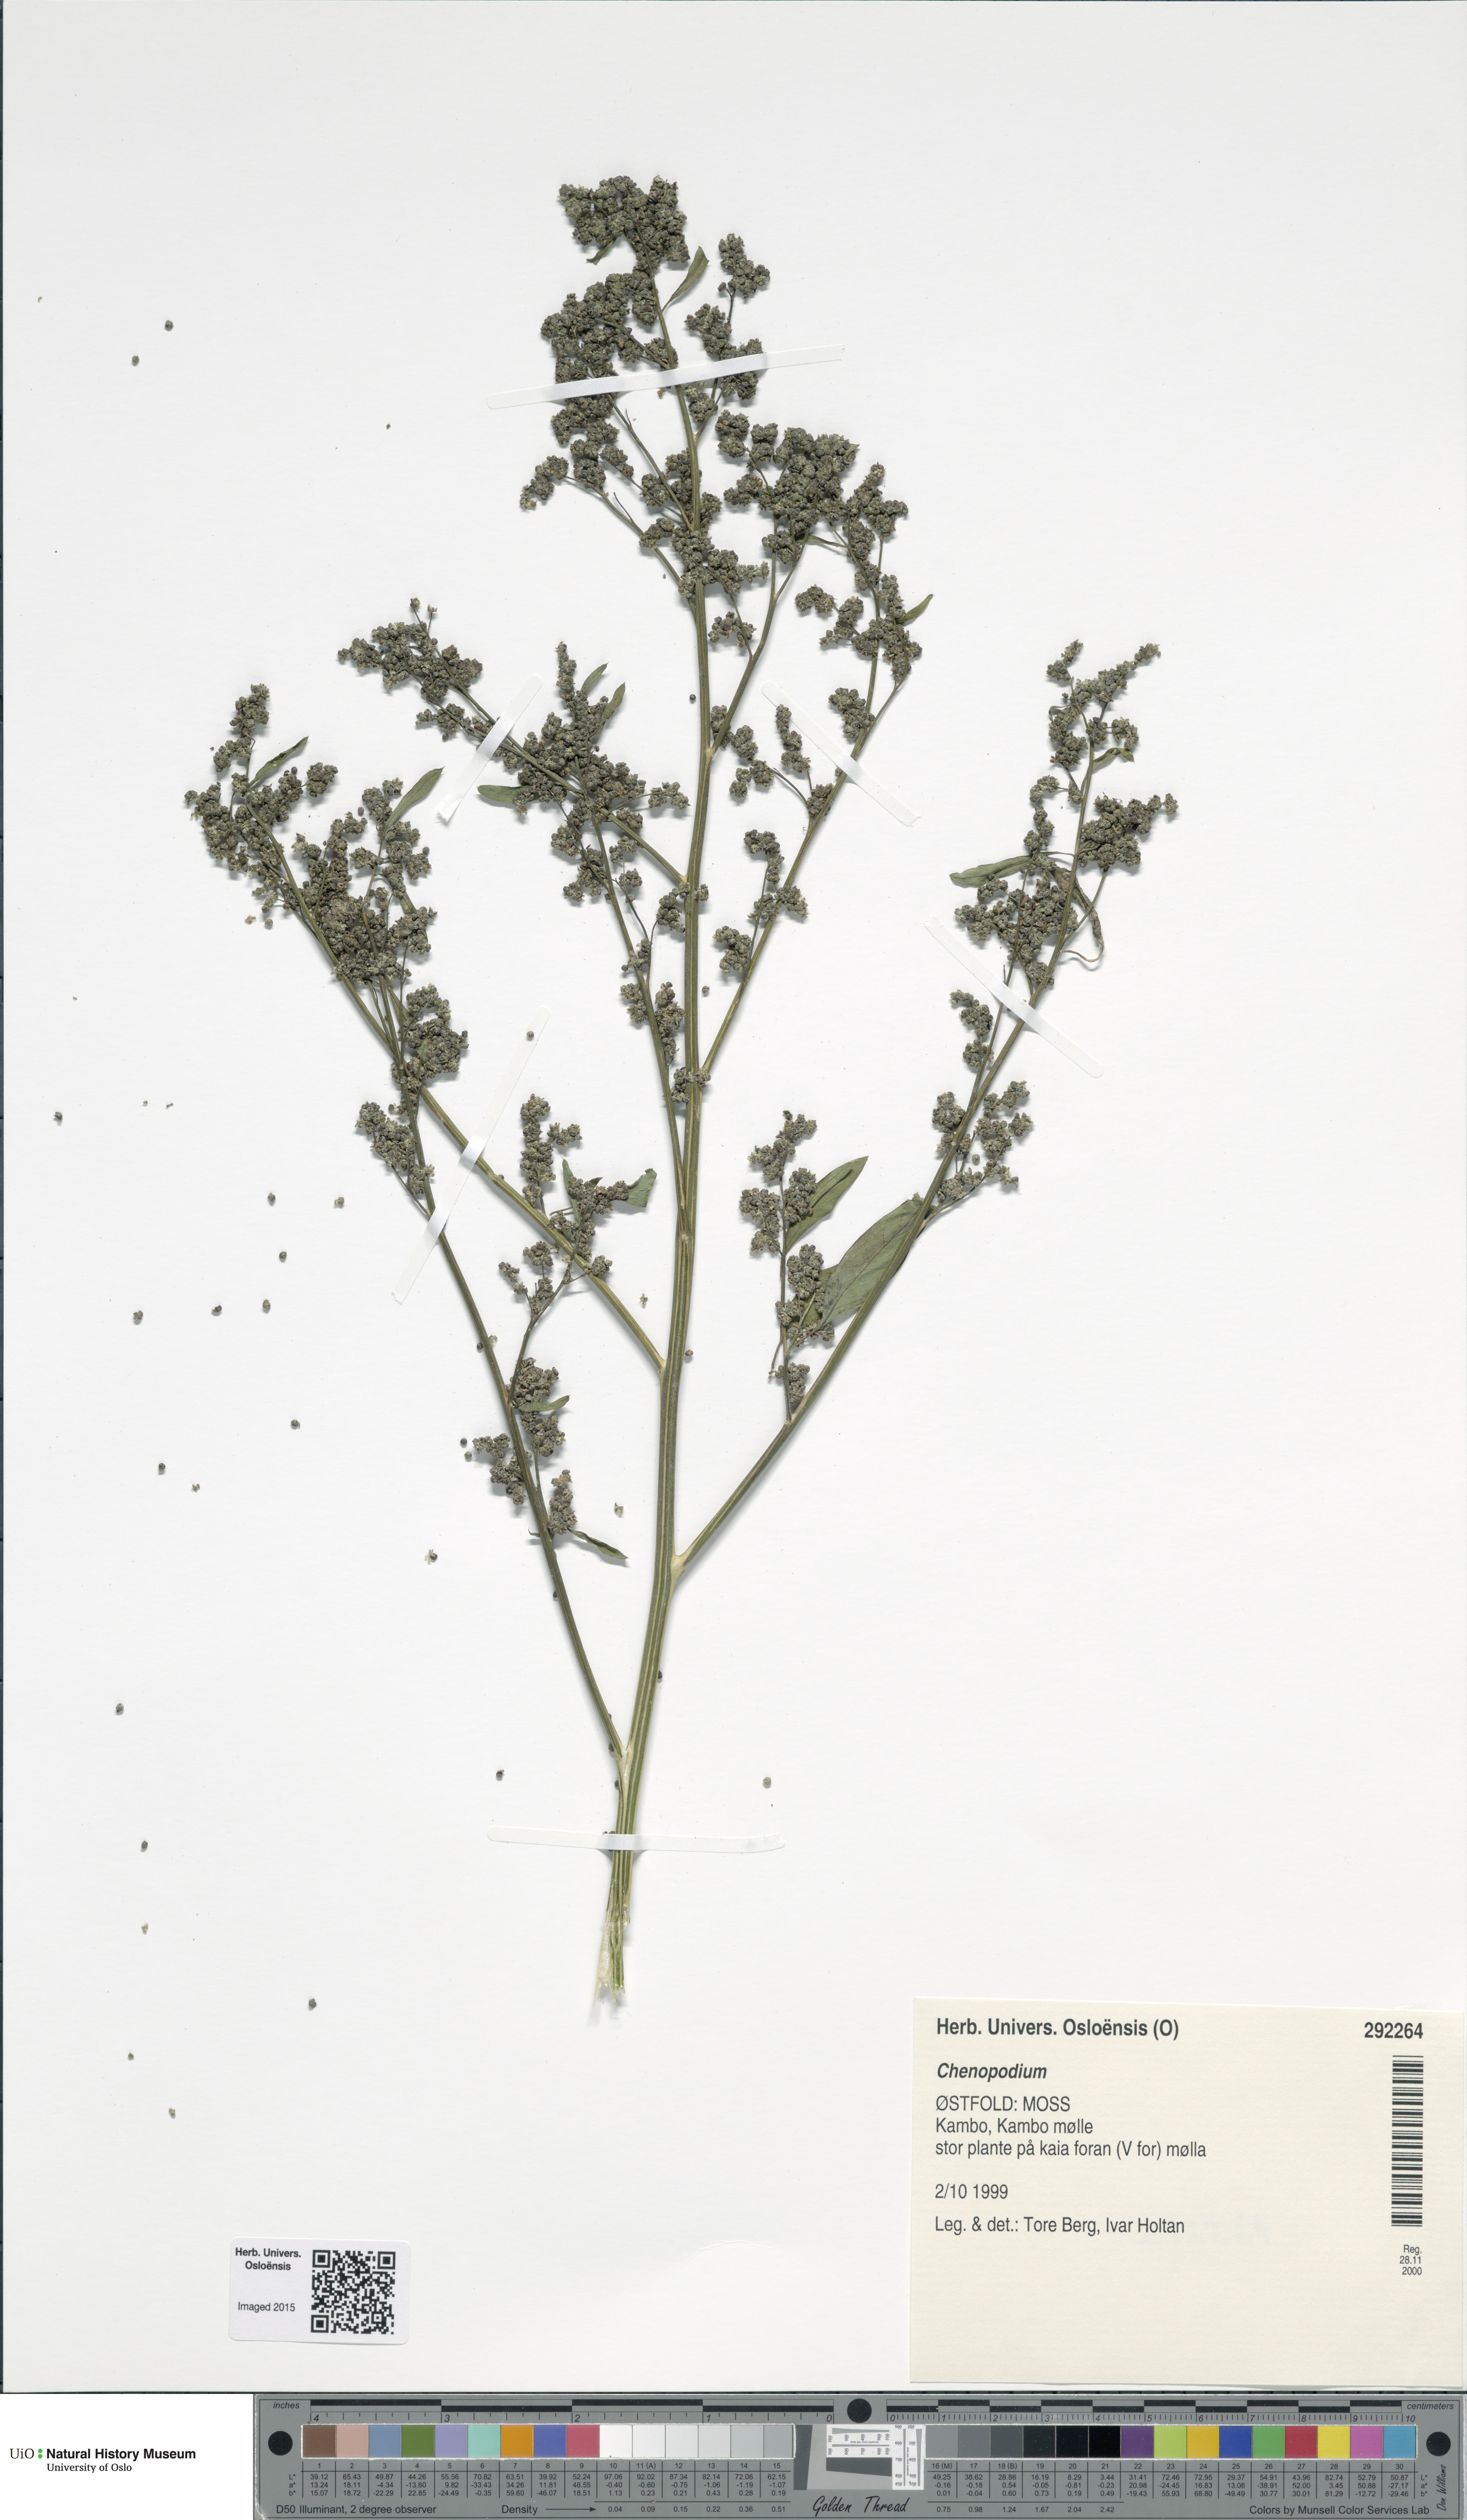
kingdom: Plantae
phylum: Tracheophyta
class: Magnoliopsida
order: Caryophyllales
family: Amaranthaceae
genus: Chenopodium
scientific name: Chenopodium
